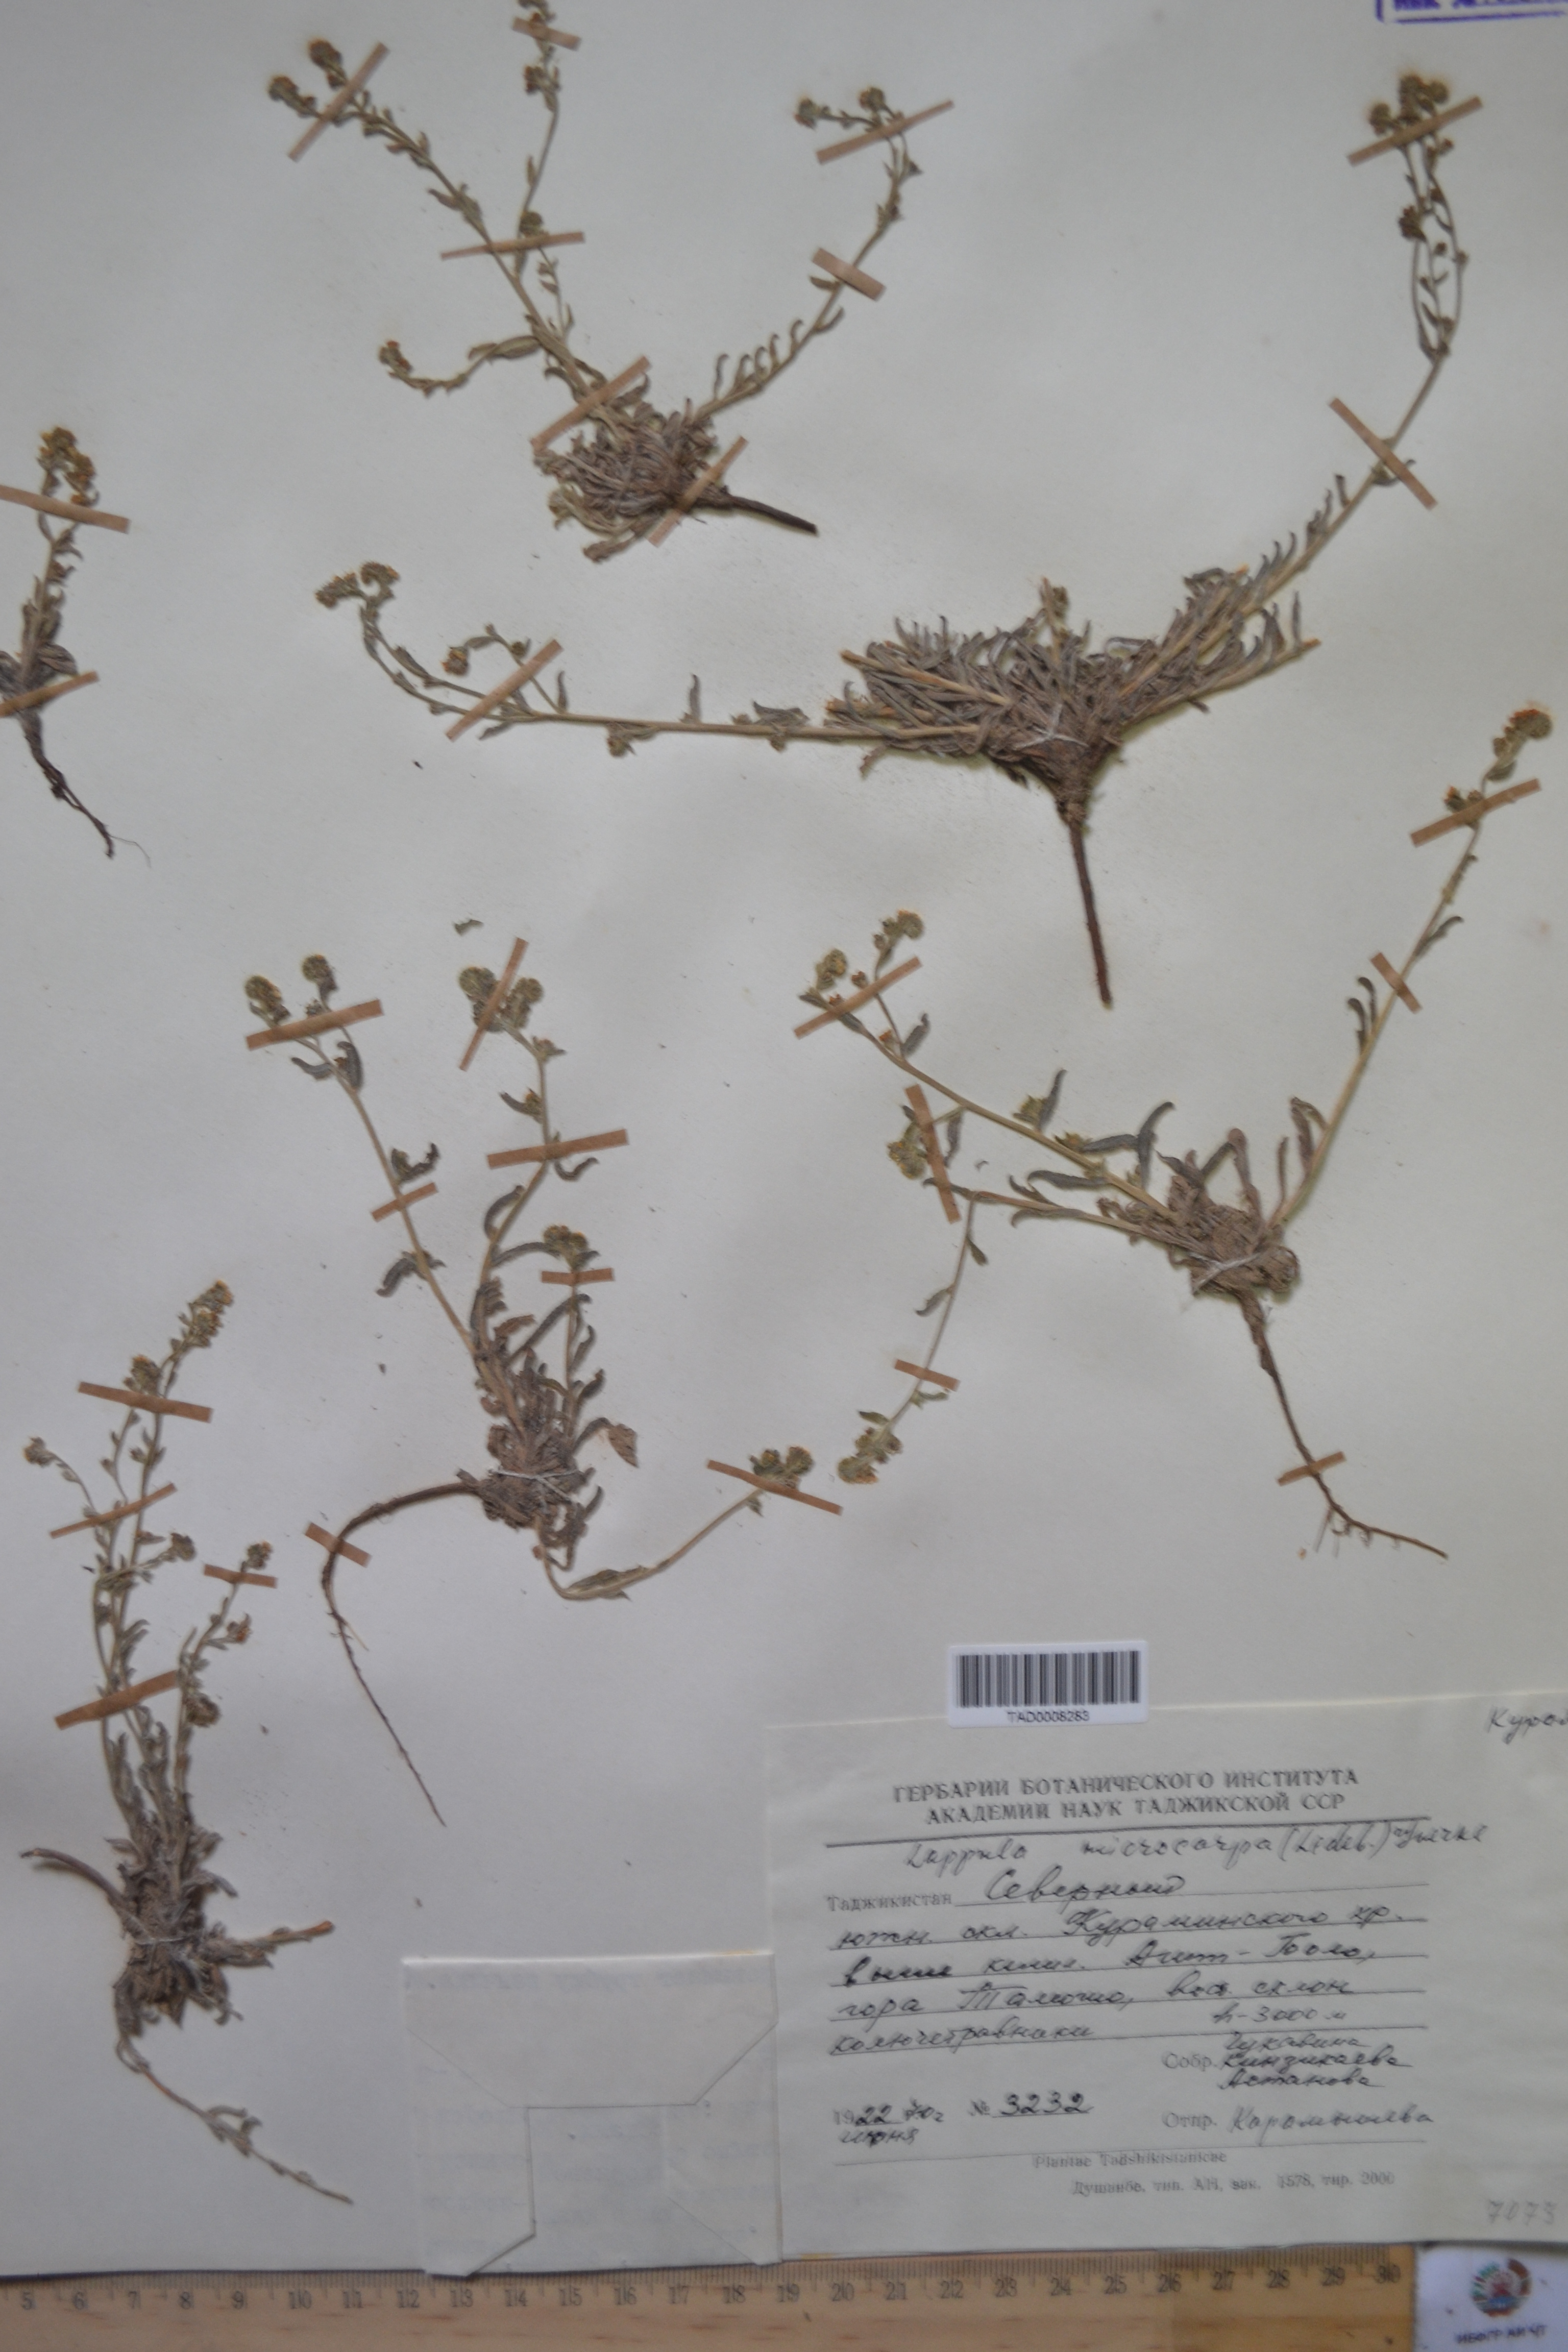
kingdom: Plantae
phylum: Tracheophyta
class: Magnoliopsida
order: Boraginales
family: Boraginaceae
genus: Lappula
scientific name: Lappula microcarpa
